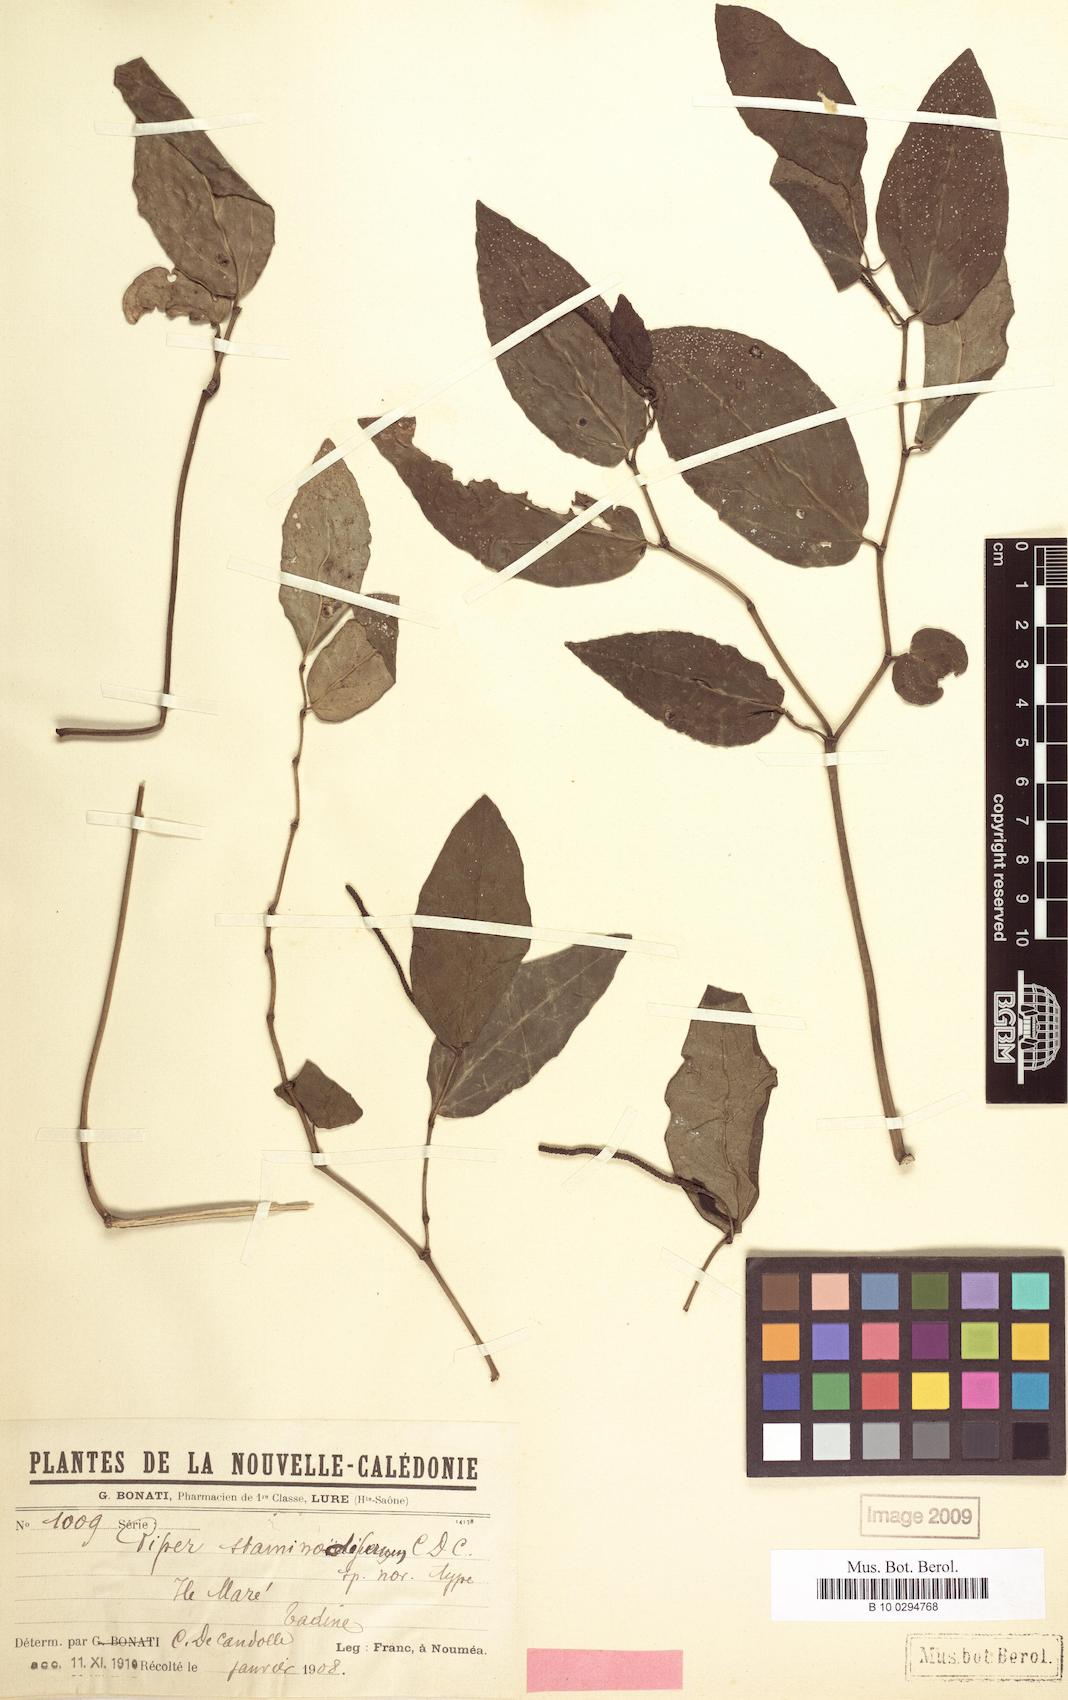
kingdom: Plantae
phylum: Tracheophyta
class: Magnoliopsida
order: Piperales
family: Piperaceae
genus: Piper
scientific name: Piper staminodiferum
